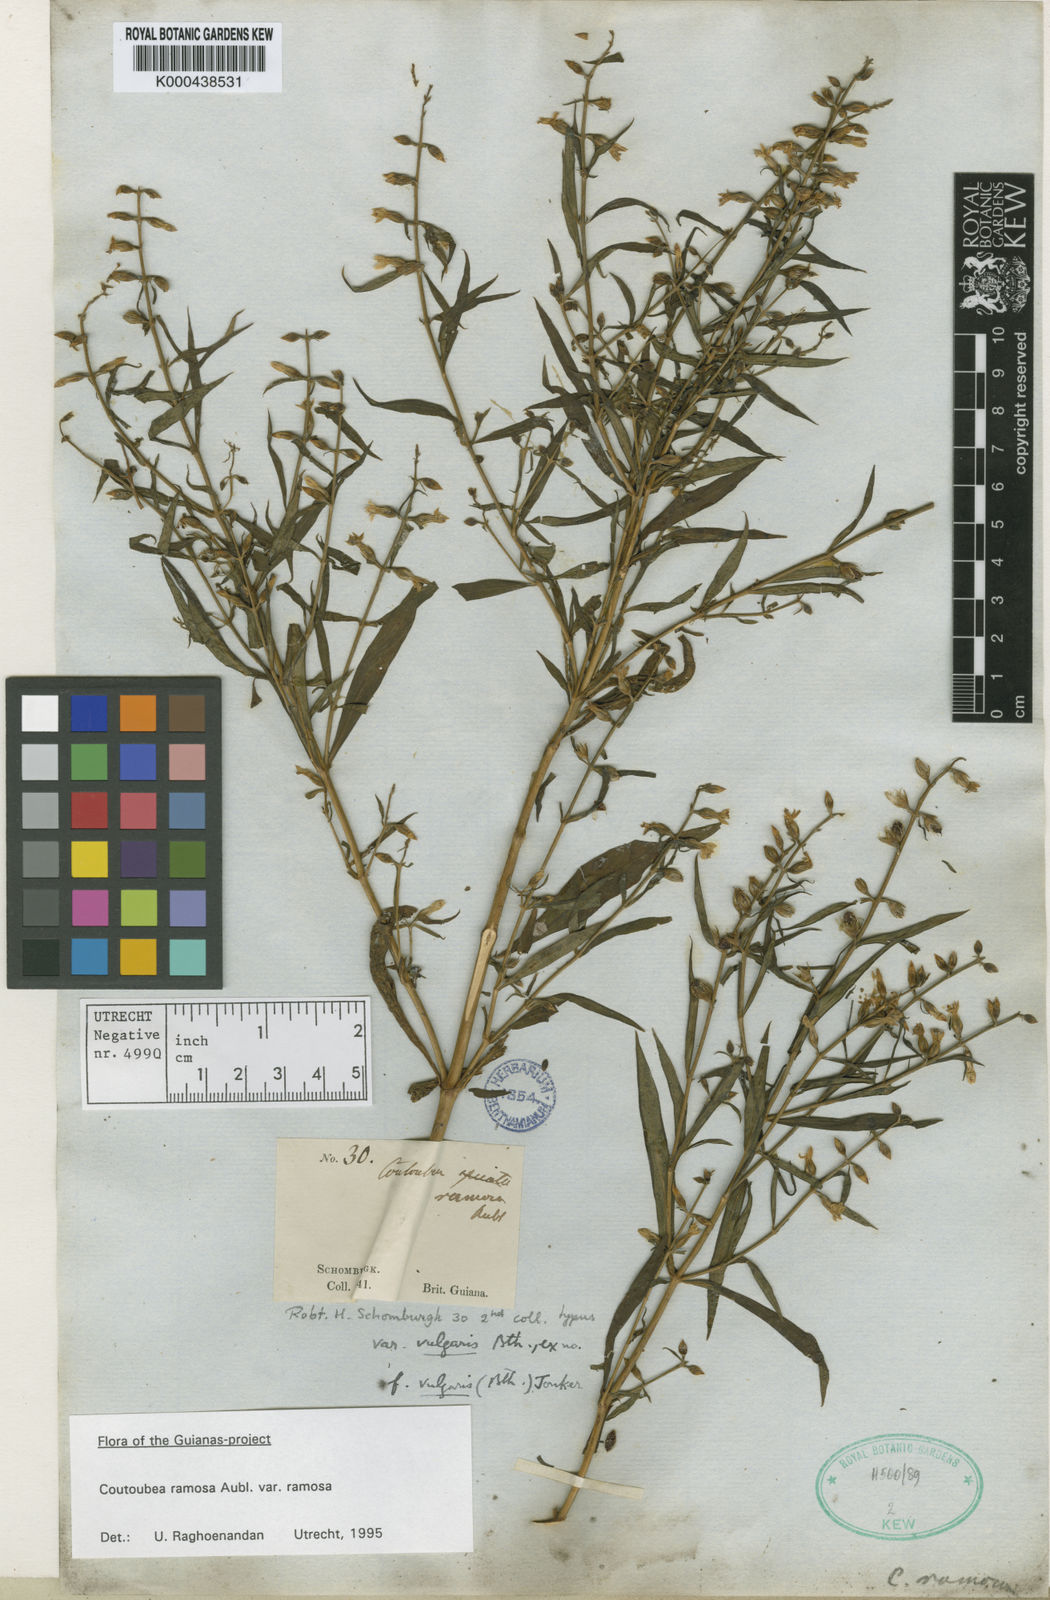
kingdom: Plantae
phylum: Tracheophyta
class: Magnoliopsida
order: Gentianales
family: Gentianaceae
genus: Coutoubea
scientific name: Coutoubea ramosa
